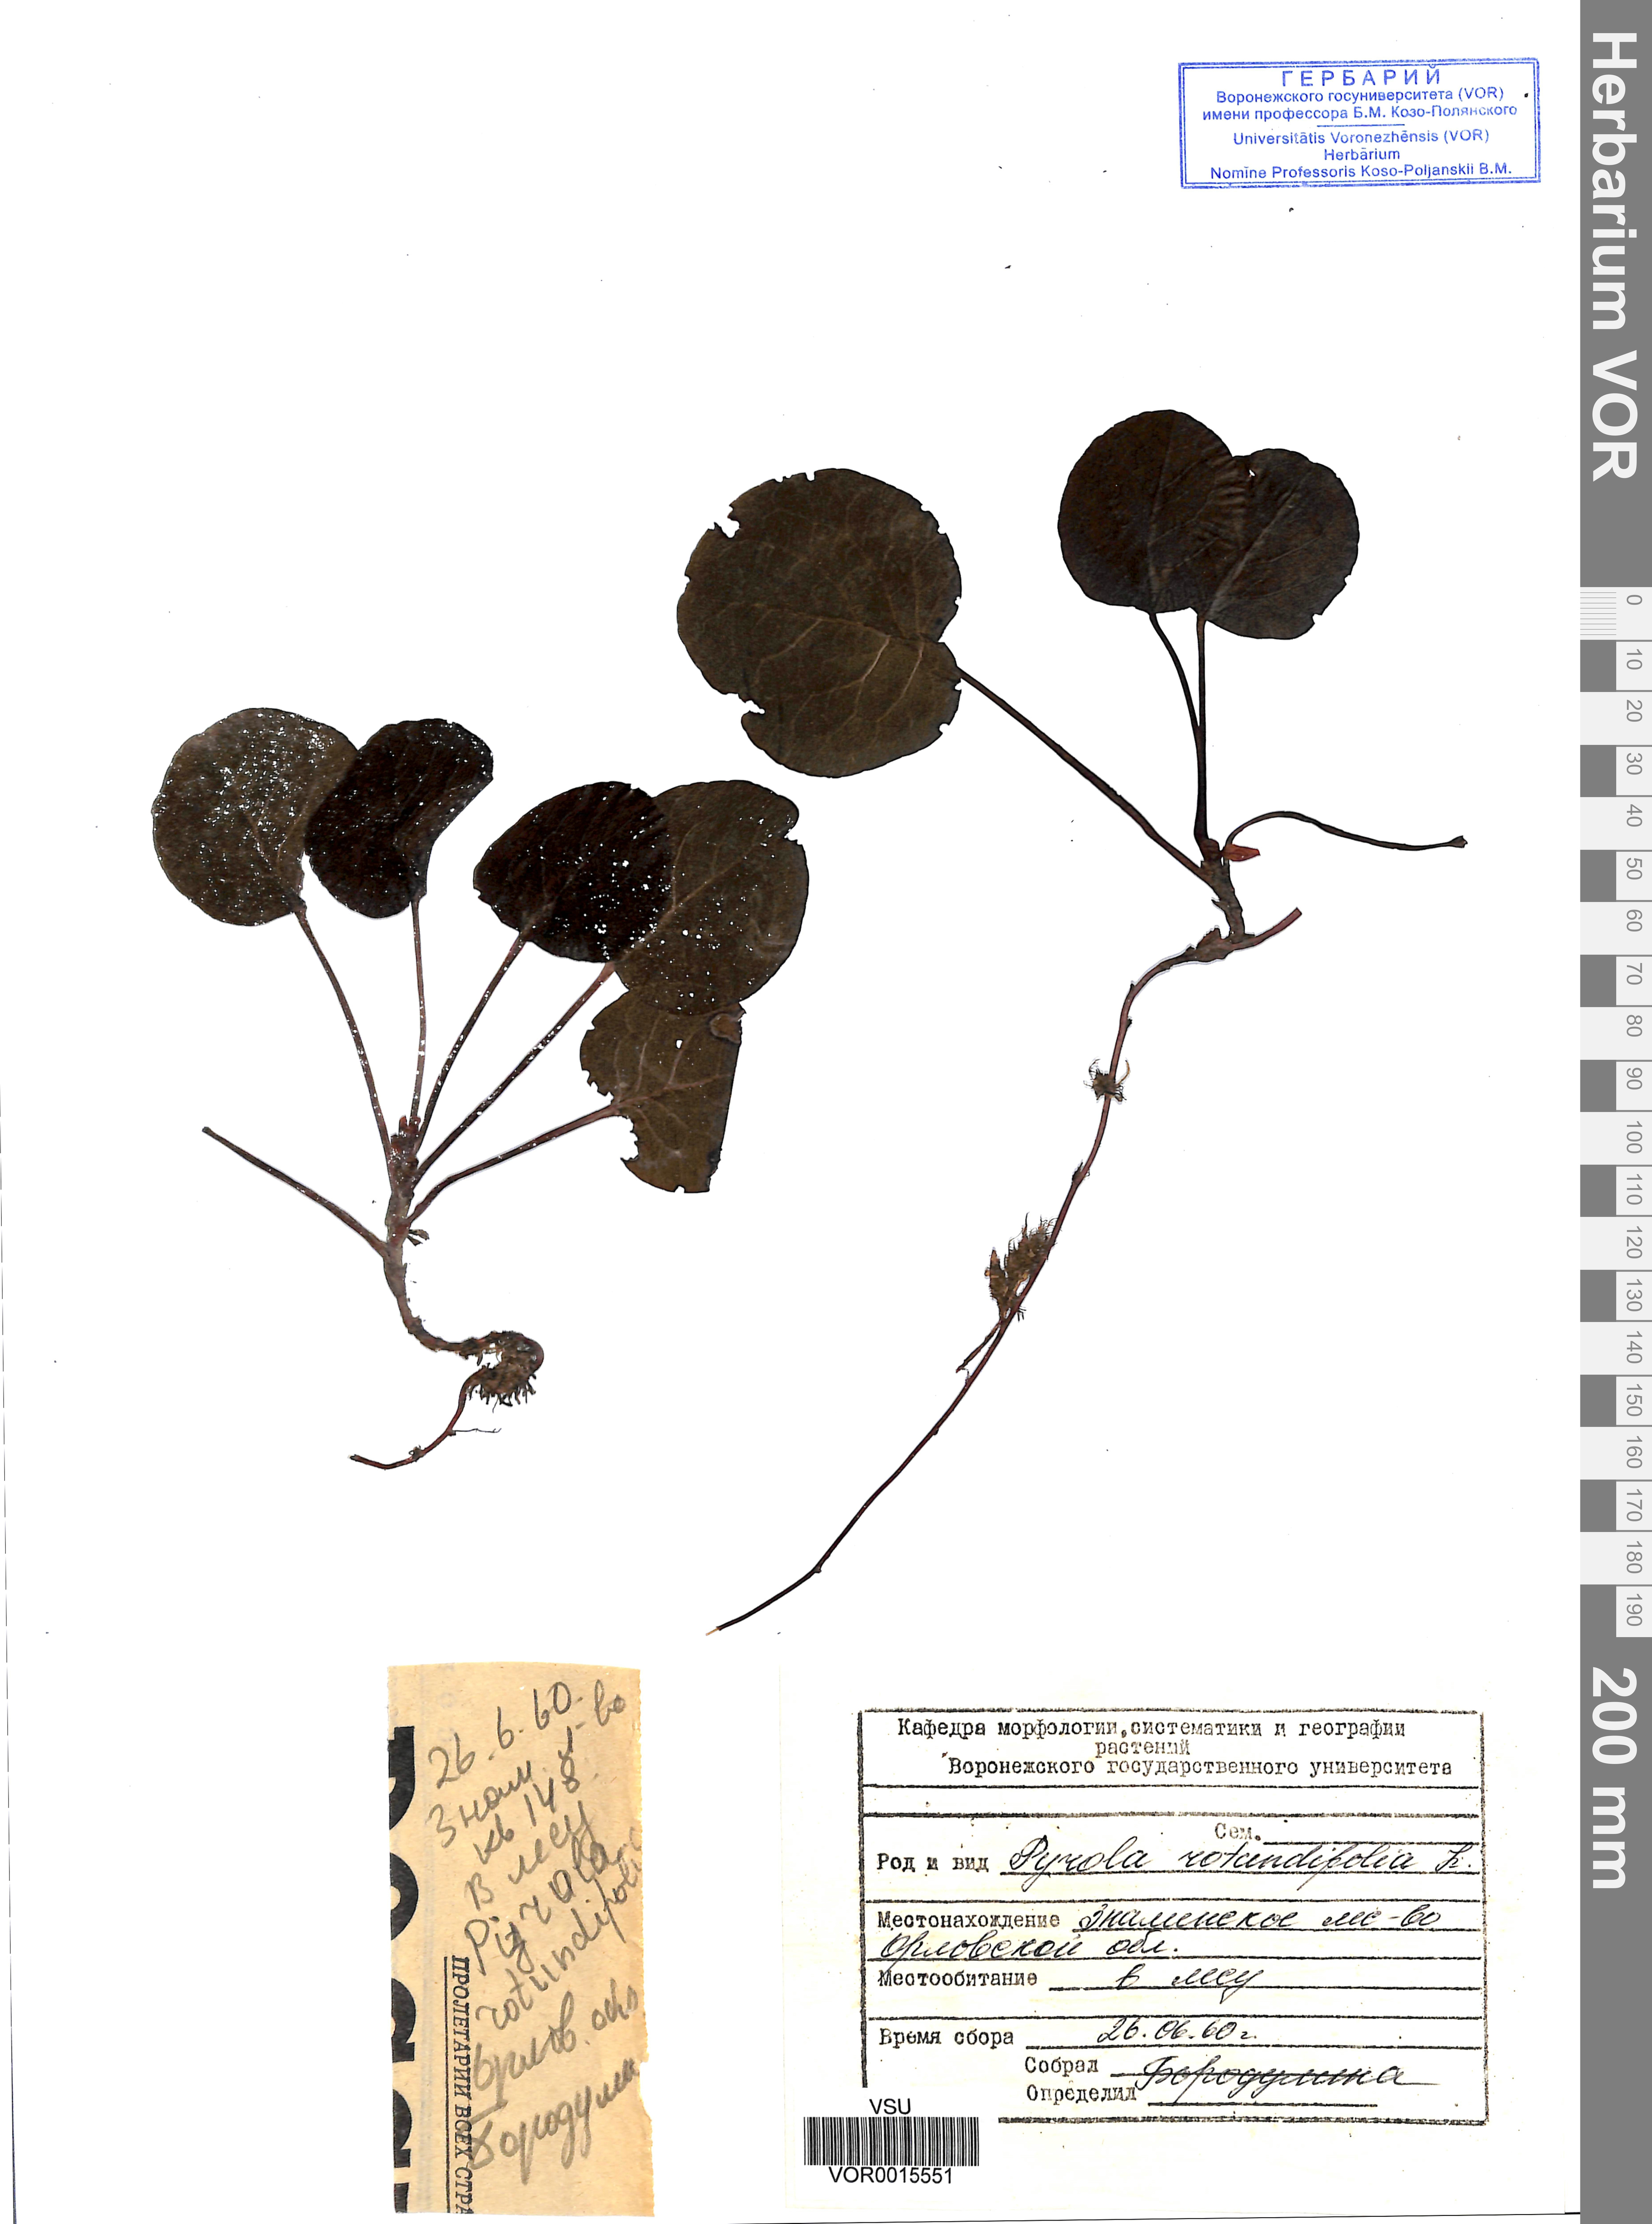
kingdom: Plantae
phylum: Tracheophyta
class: Magnoliopsida
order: Ericales
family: Ericaceae
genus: Pyrola
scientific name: Pyrola rotundifolia
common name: Round-leaved wintergreen
